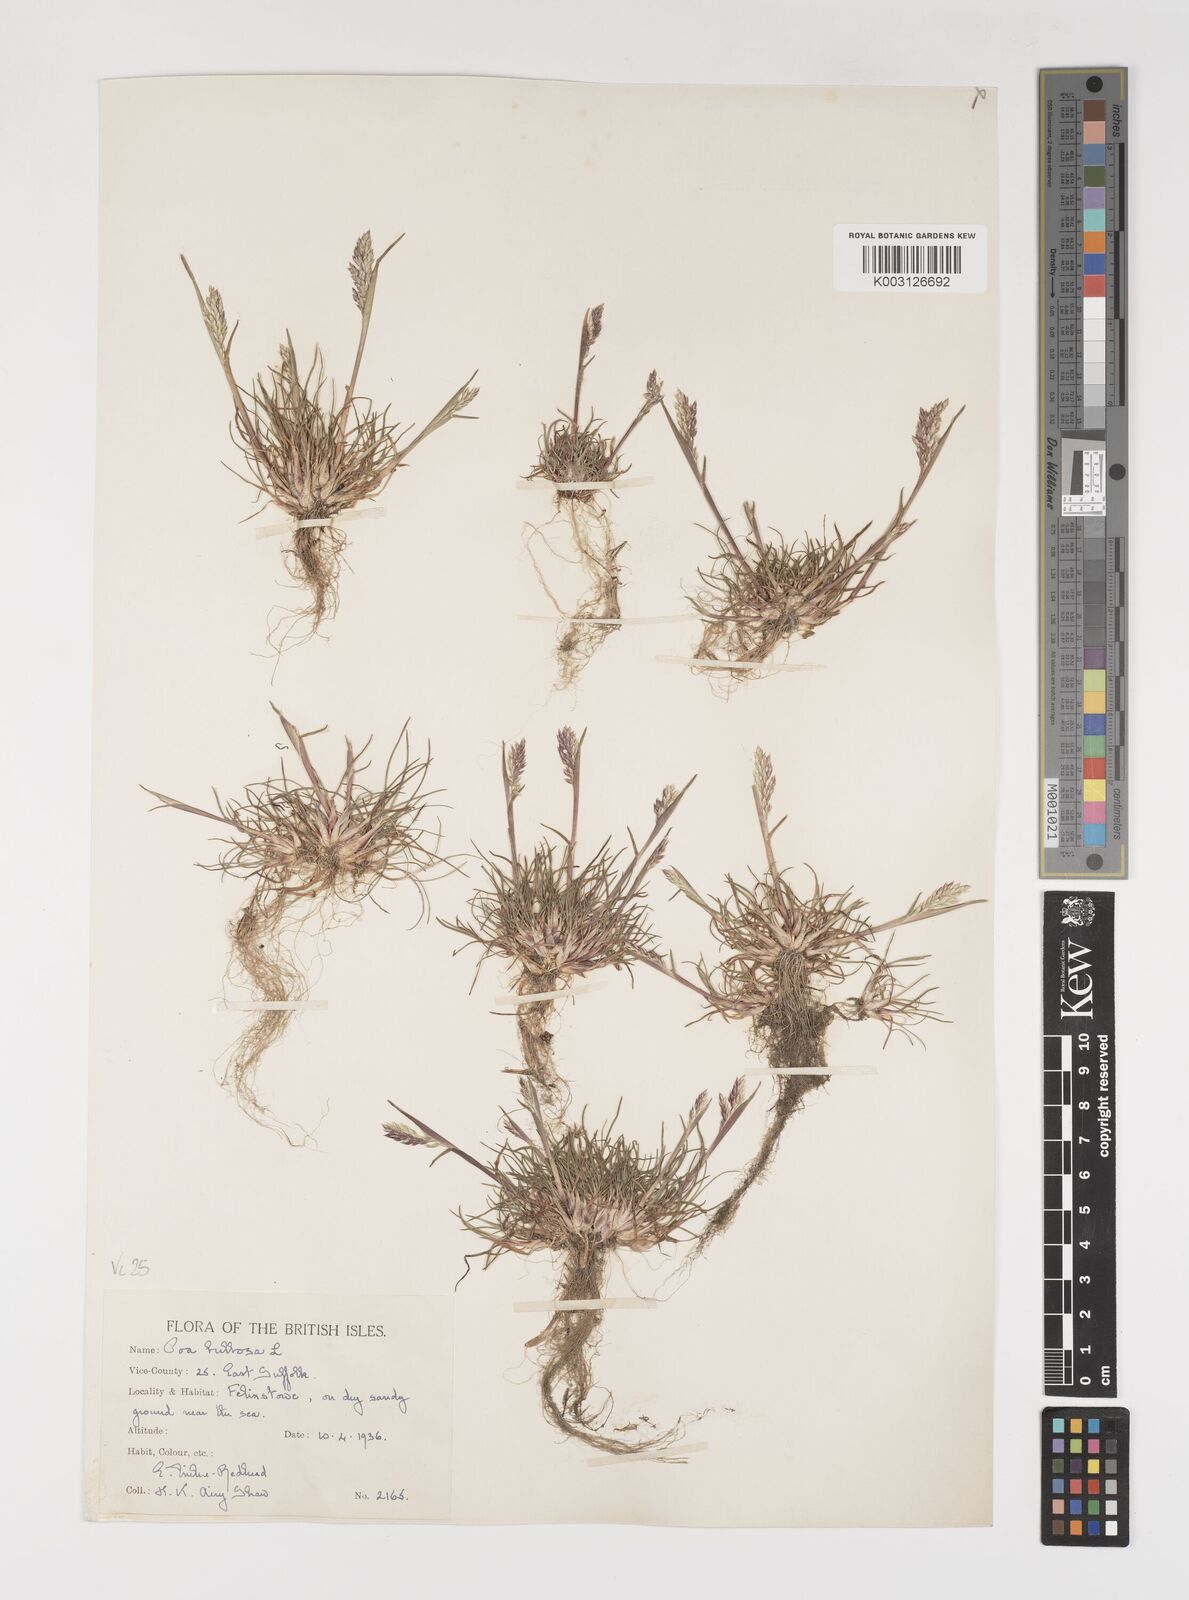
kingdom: Plantae
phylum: Tracheophyta
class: Liliopsida
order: Poales
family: Poaceae
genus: Poa
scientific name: Poa bulbosa
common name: Bulbous bluegrass
